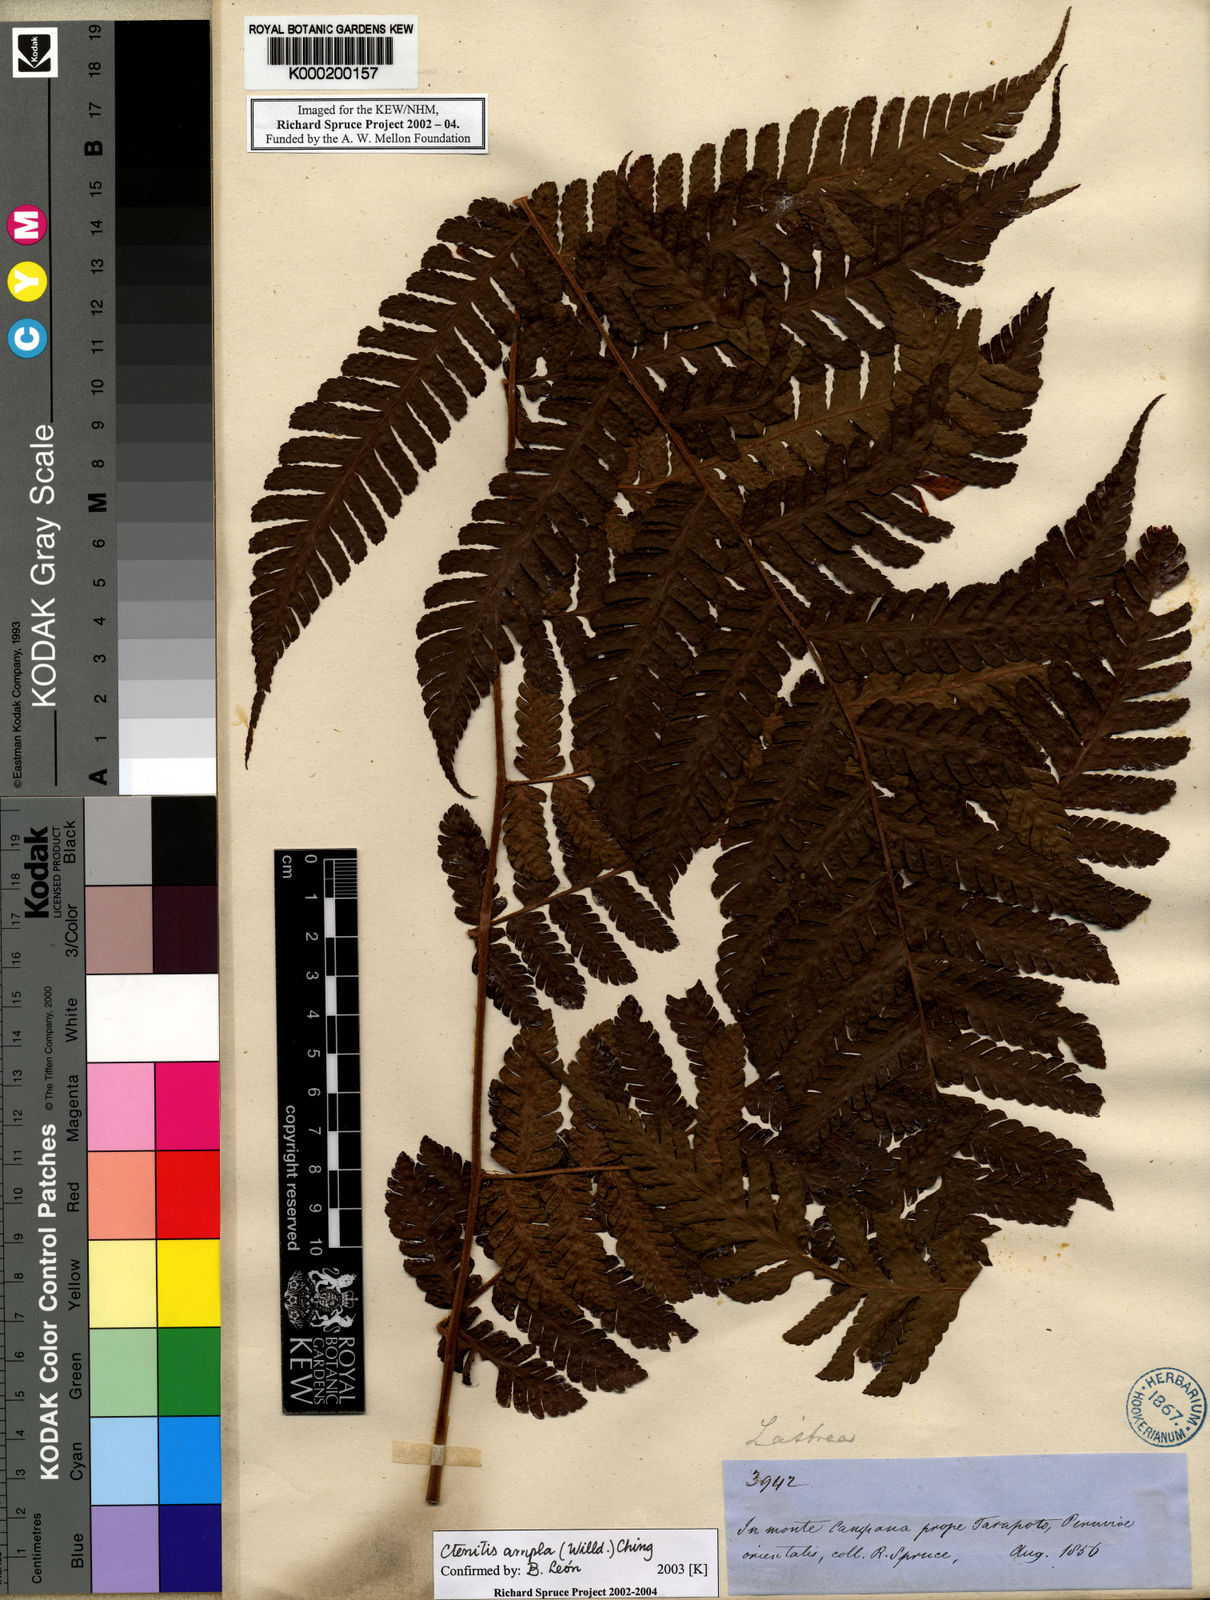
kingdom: Plantae
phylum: Tracheophyta
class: Polypodiopsida
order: Polypodiales
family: Dryopteridaceae
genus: Ctenitis
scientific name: Ctenitis sloanei
